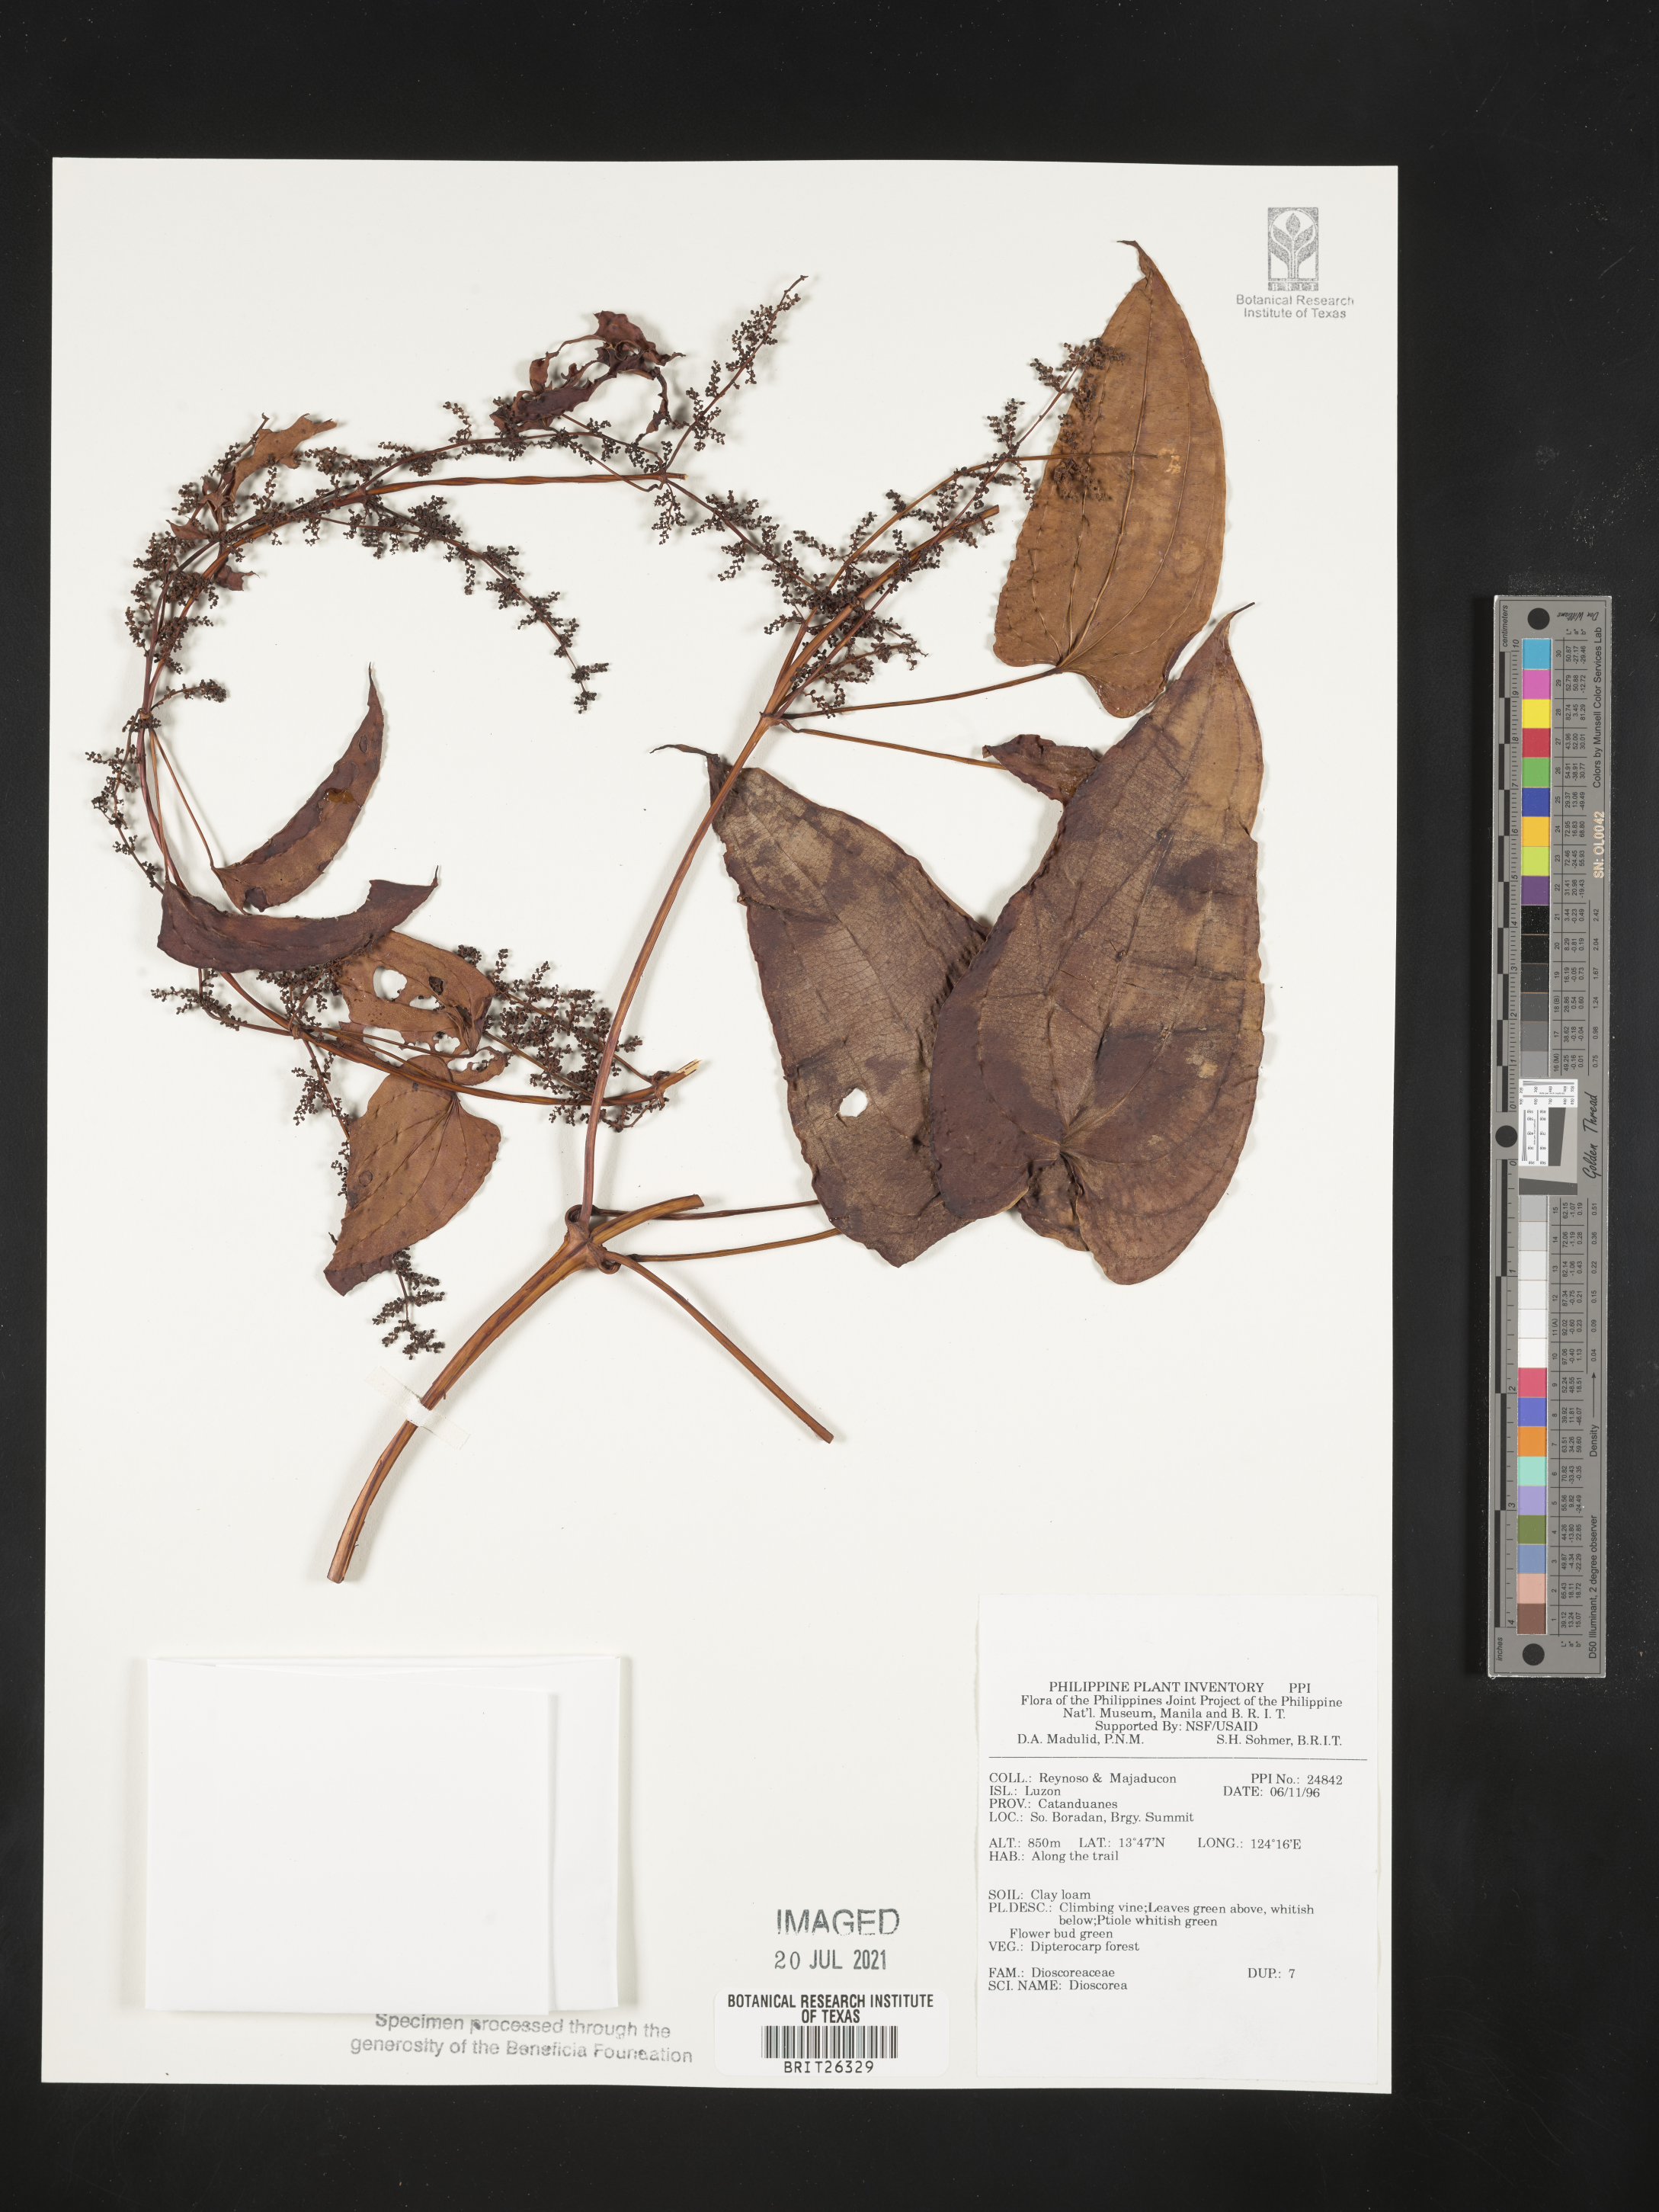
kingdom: Plantae
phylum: Tracheophyta
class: Liliopsida
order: Dioscoreales
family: Dioscoreaceae
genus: Dioscorea
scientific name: Dioscorea
